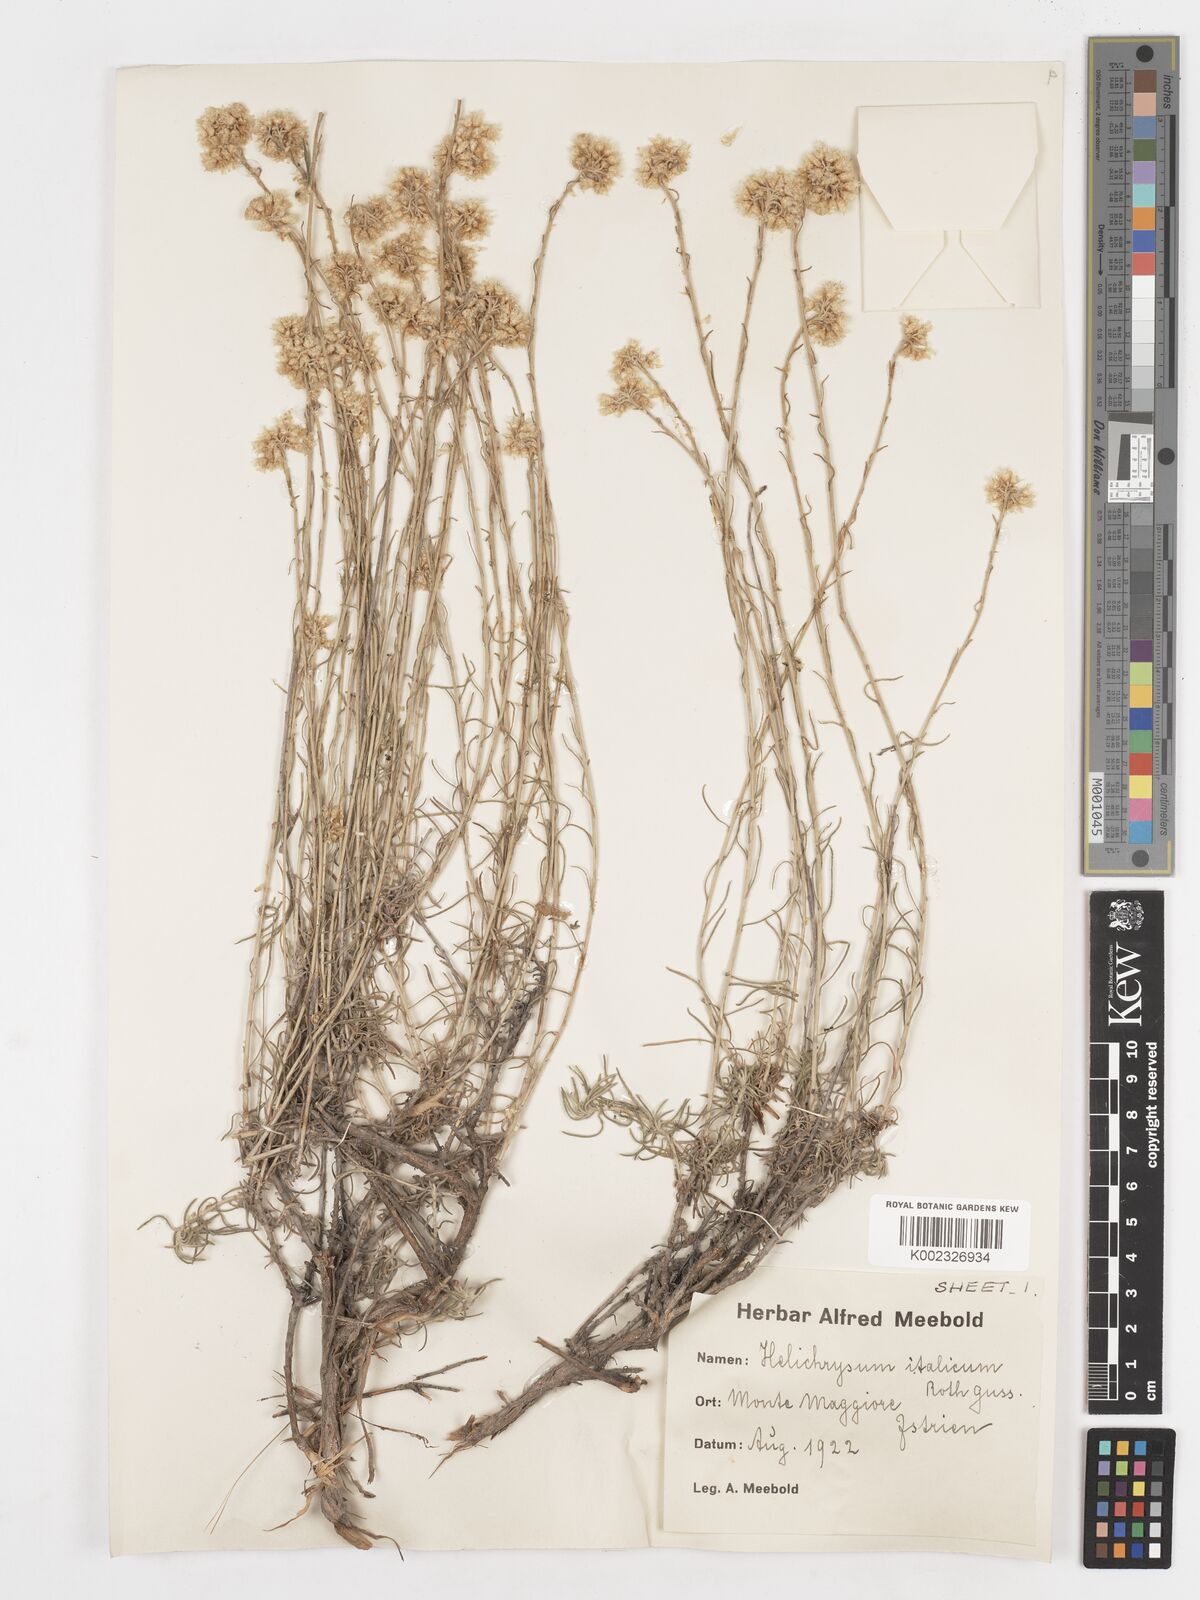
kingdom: Plantae
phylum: Tracheophyta
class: Magnoliopsida
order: Asterales
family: Asteraceae
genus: Helichrysum
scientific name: Helichrysum italicum
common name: Curryplant
